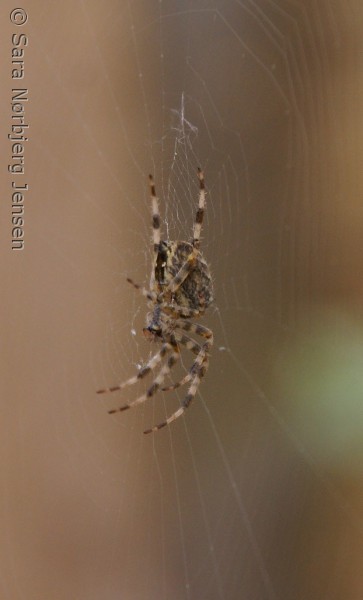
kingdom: Animalia
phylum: Arthropoda
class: Arachnida
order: Araneae
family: Araneidae
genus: Araneus
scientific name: Araneus diadematus
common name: Korsedderkop
